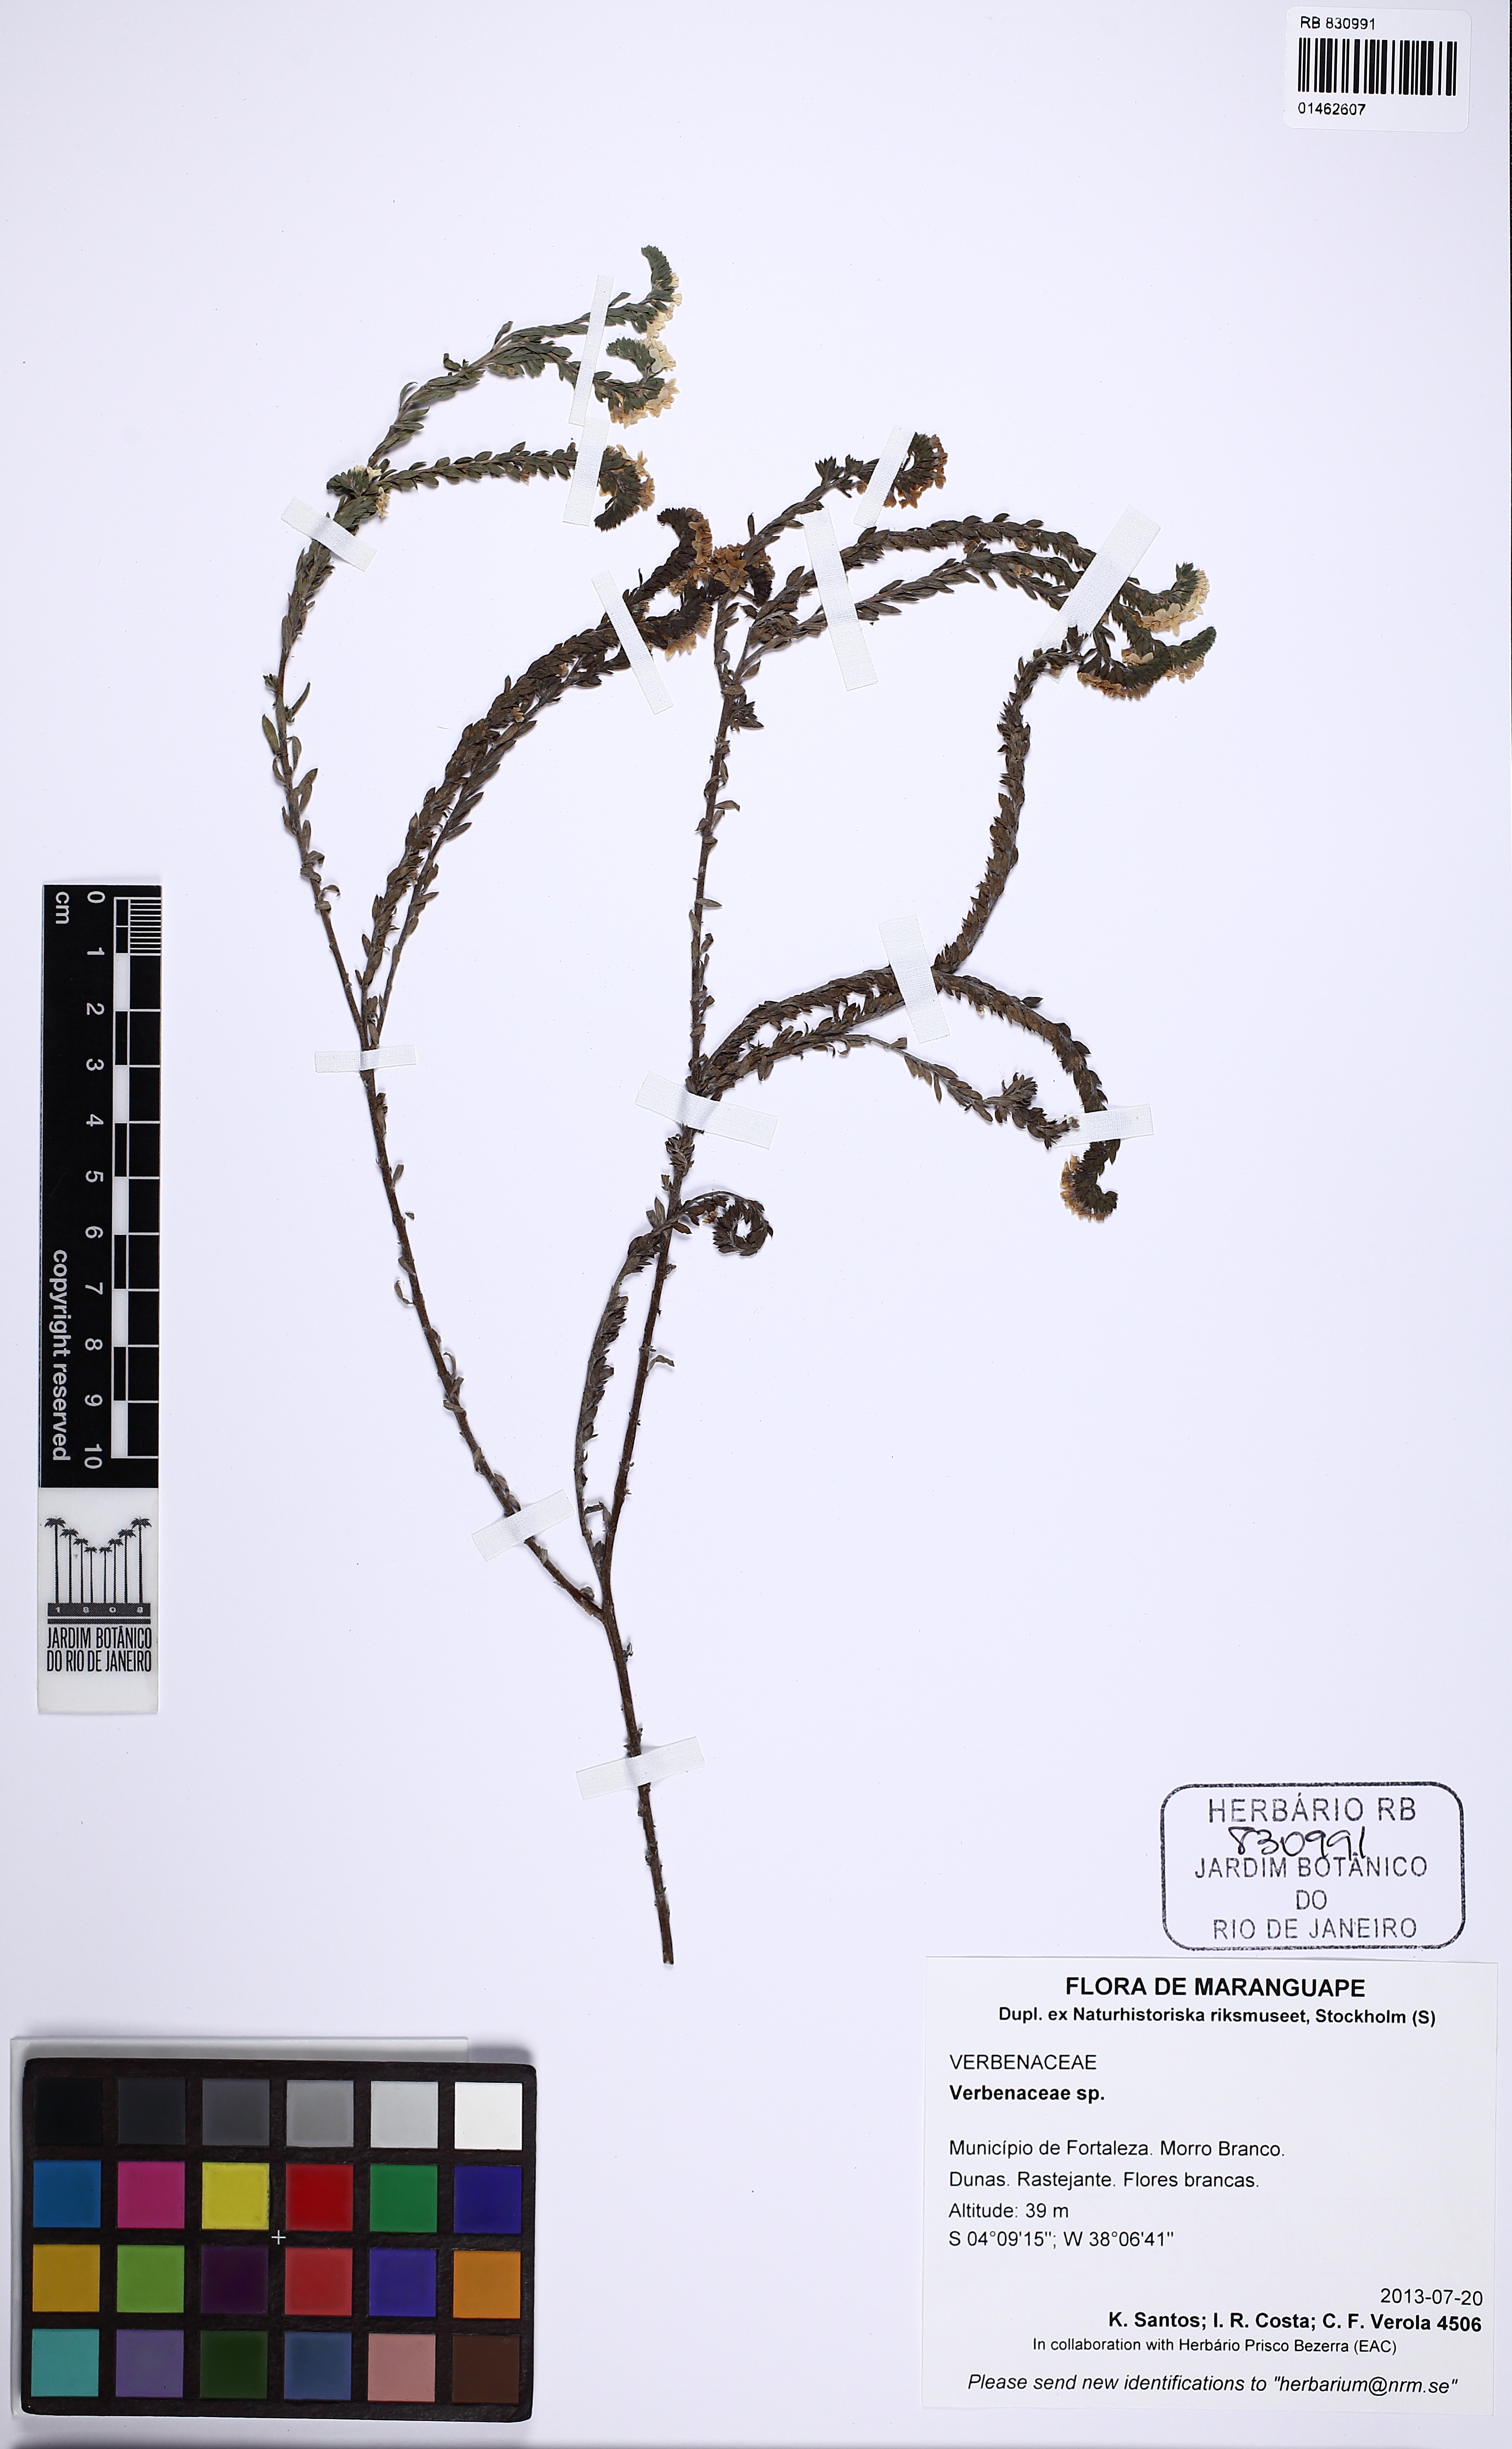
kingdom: Plantae
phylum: Tracheophyta
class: Magnoliopsida
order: Lamiales
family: Verbenaceae
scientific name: Verbenaceae
